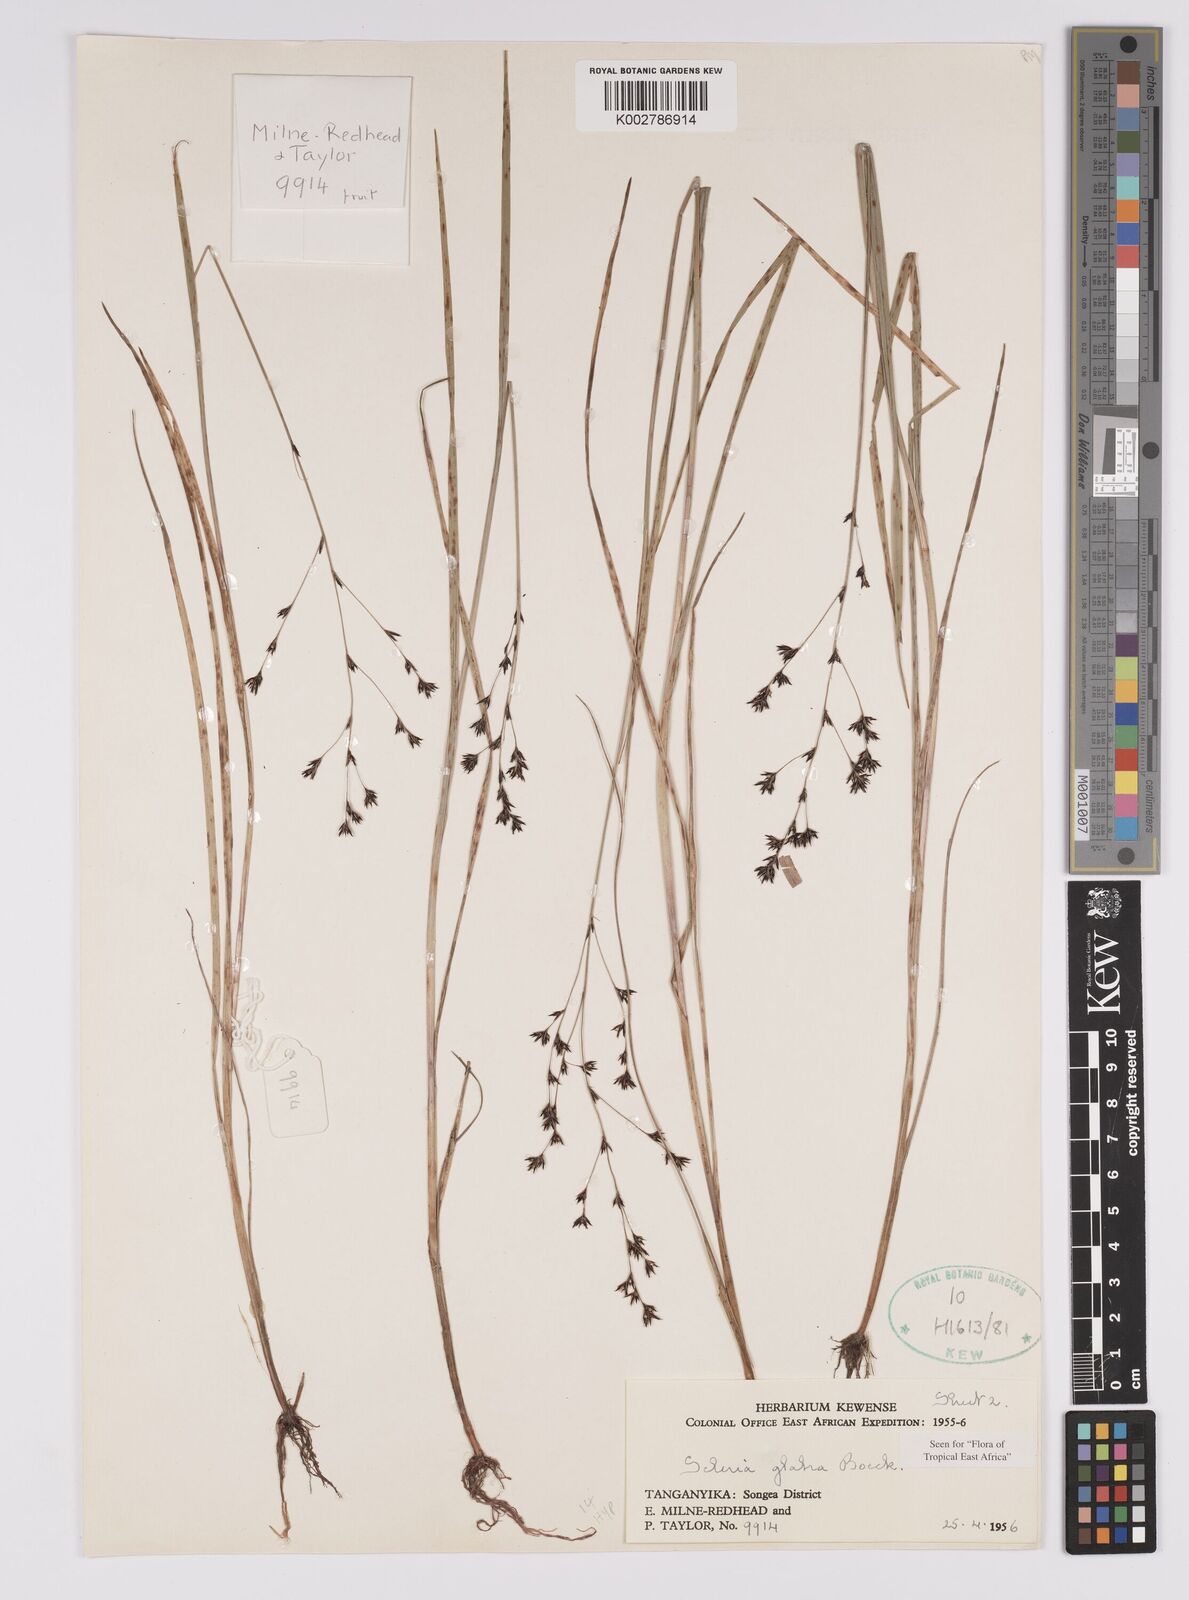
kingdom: Plantae
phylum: Tracheophyta
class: Liliopsida
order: Poales
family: Cyperaceae
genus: Scleria
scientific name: Scleria glabra
